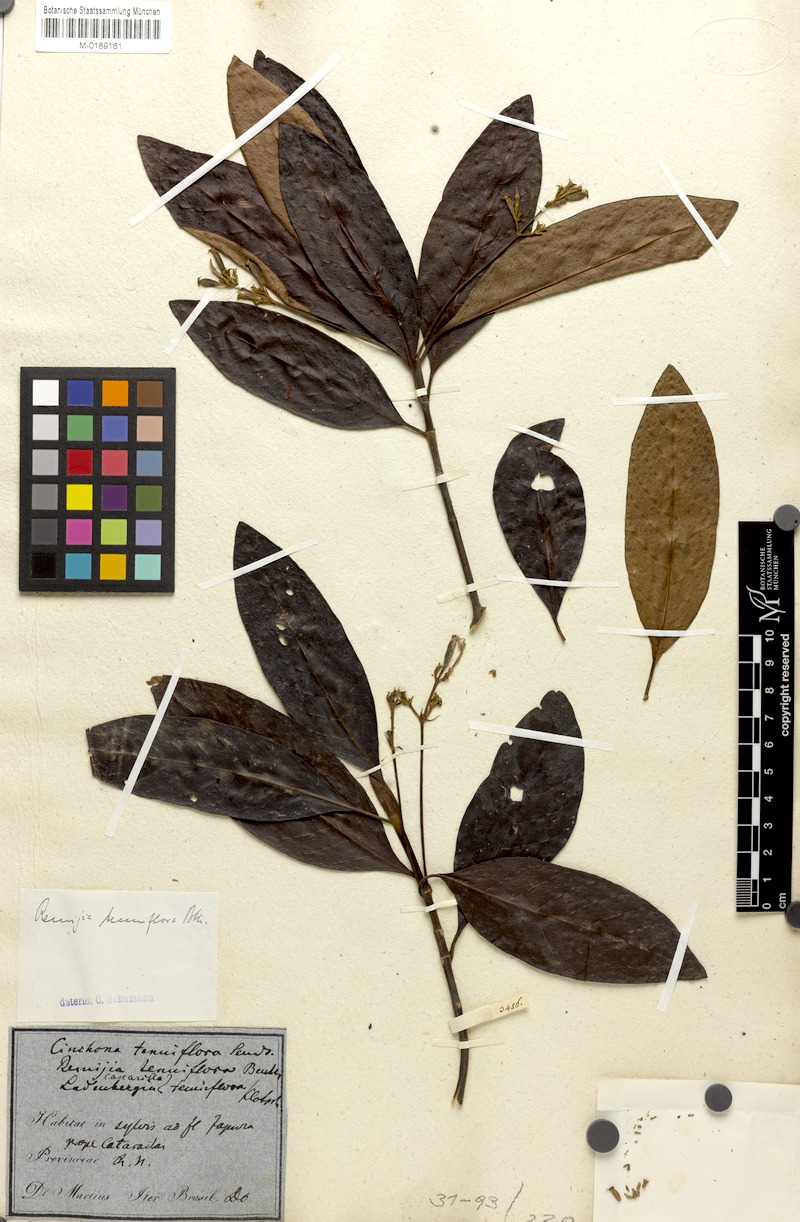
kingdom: Plantae
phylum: Tracheophyta
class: Magnoliopsida
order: Gentianales
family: Rubiaceae
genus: Remijia
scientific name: Remijia tenuiflora
